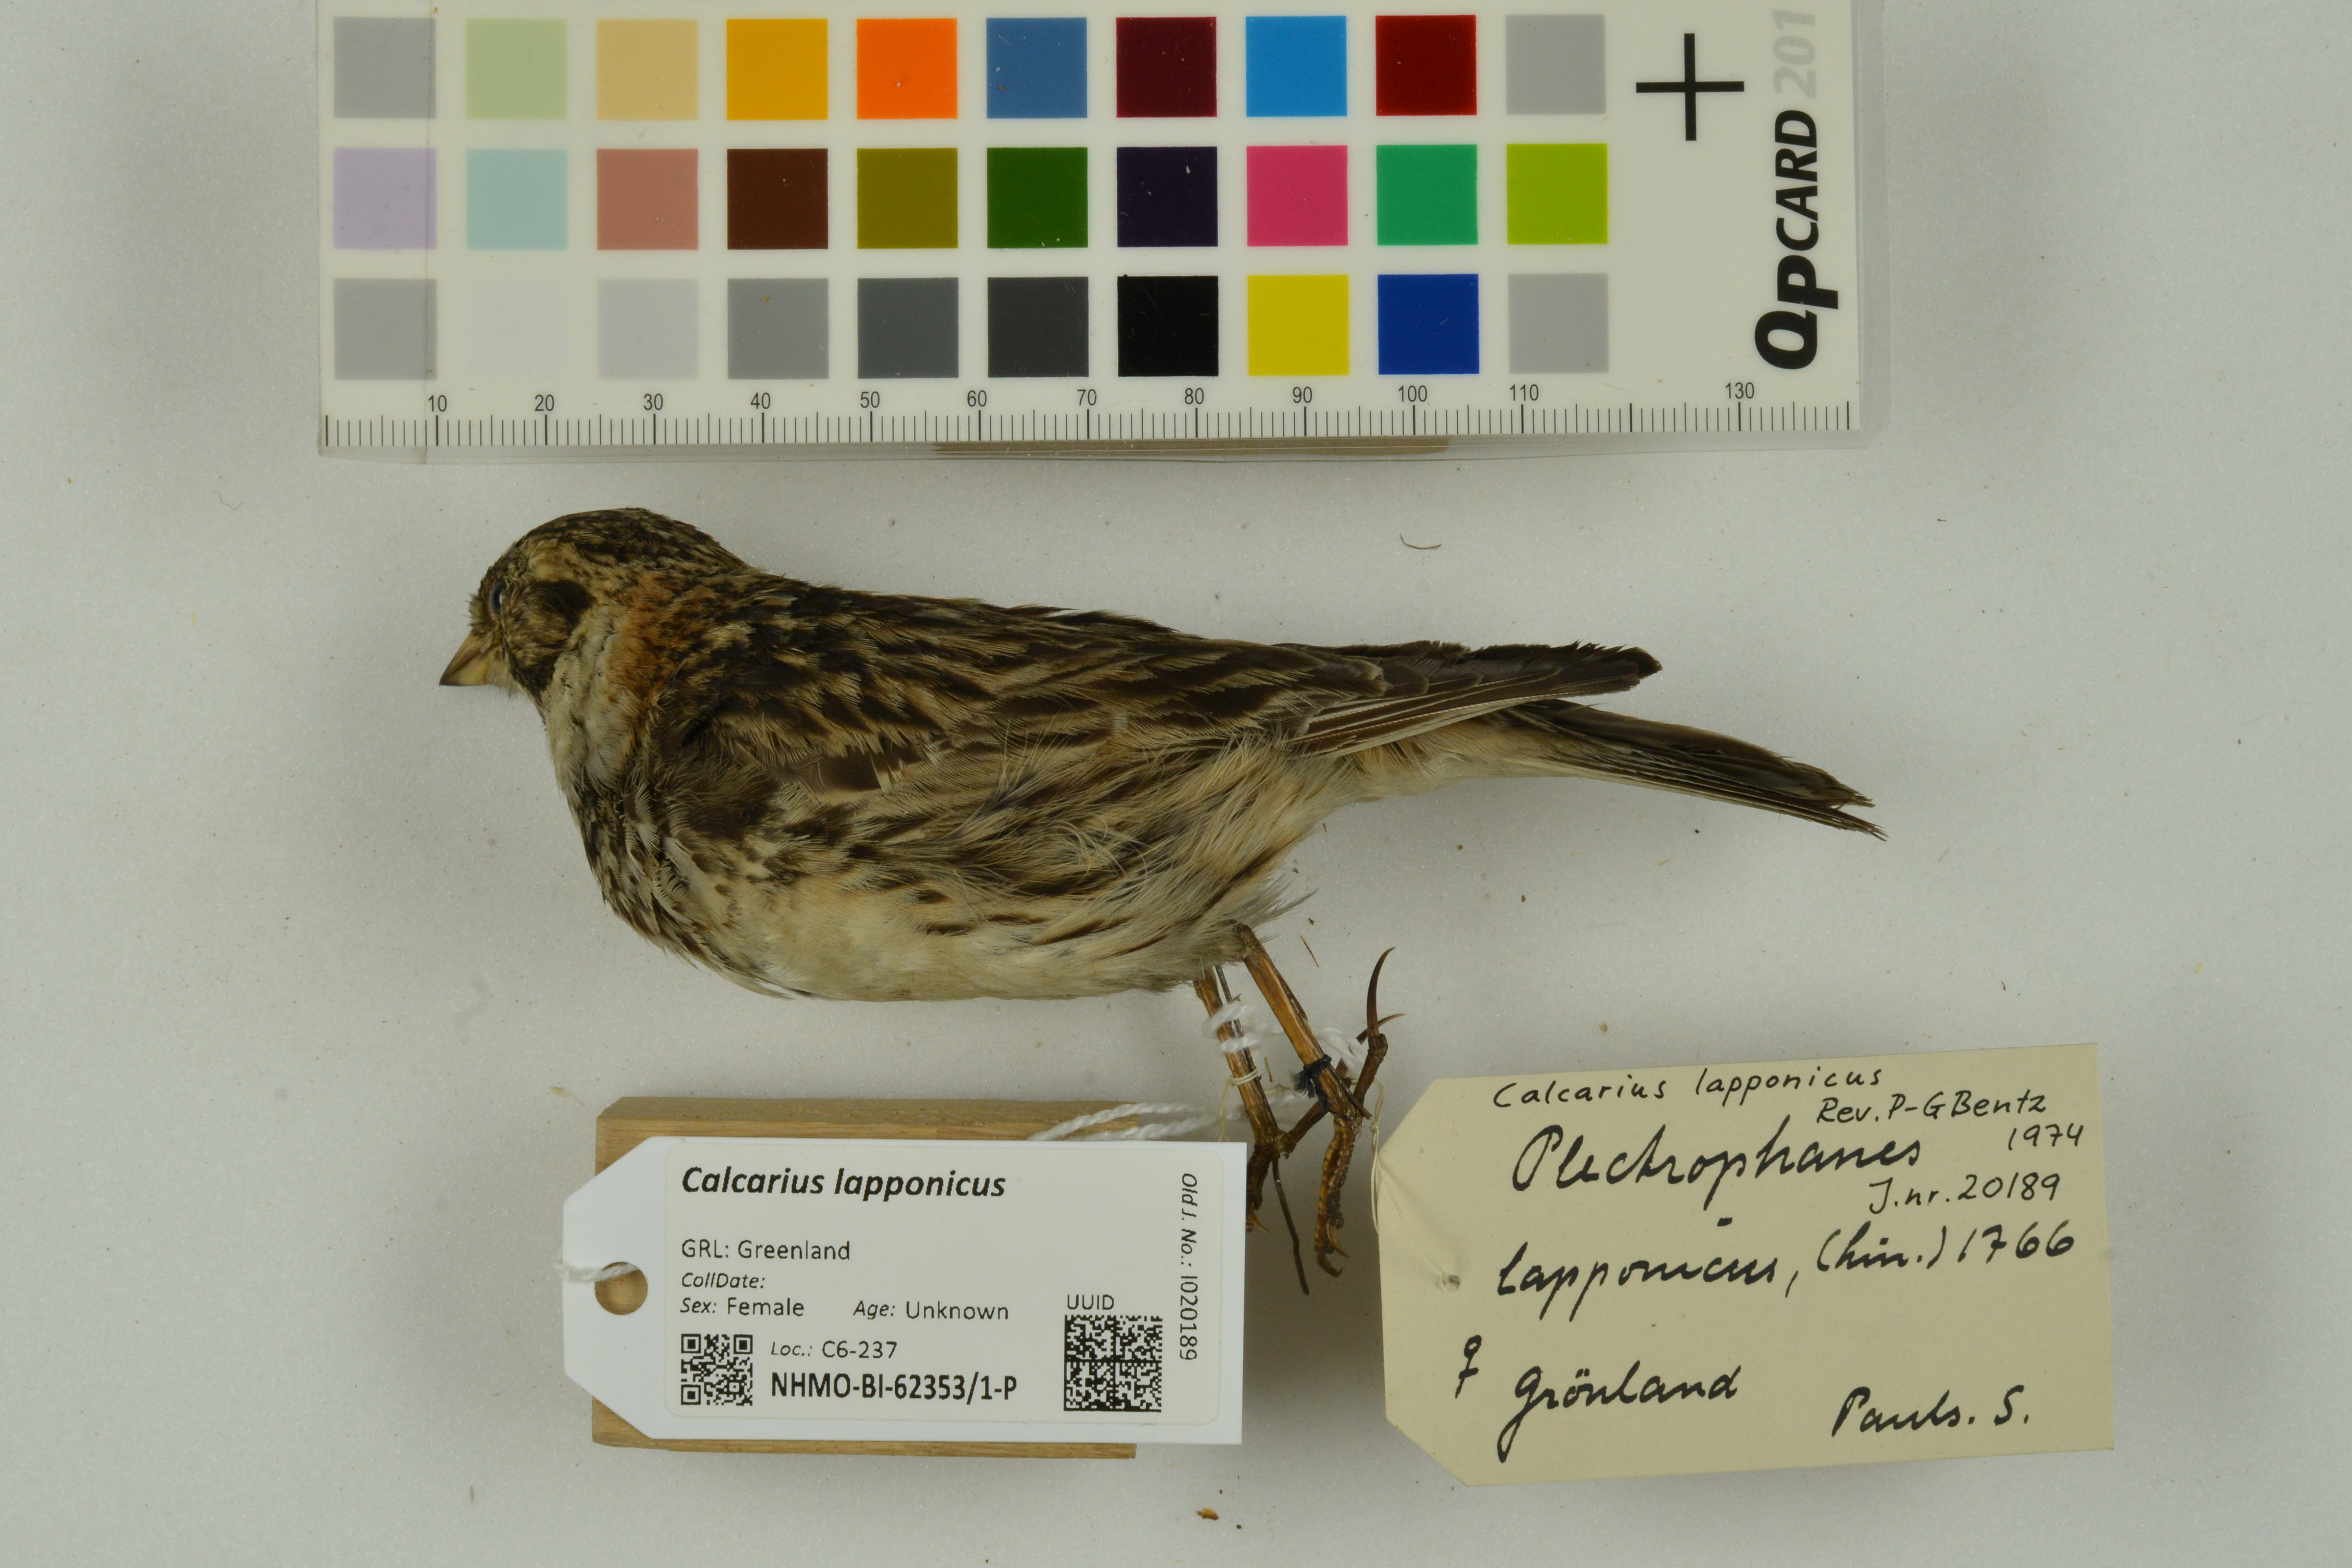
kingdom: Animalia
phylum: Chordata
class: Aves
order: Passeriformes
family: Calcariidae
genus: Calcarius
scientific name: Calcarius lapponicus
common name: Lapland longspur
